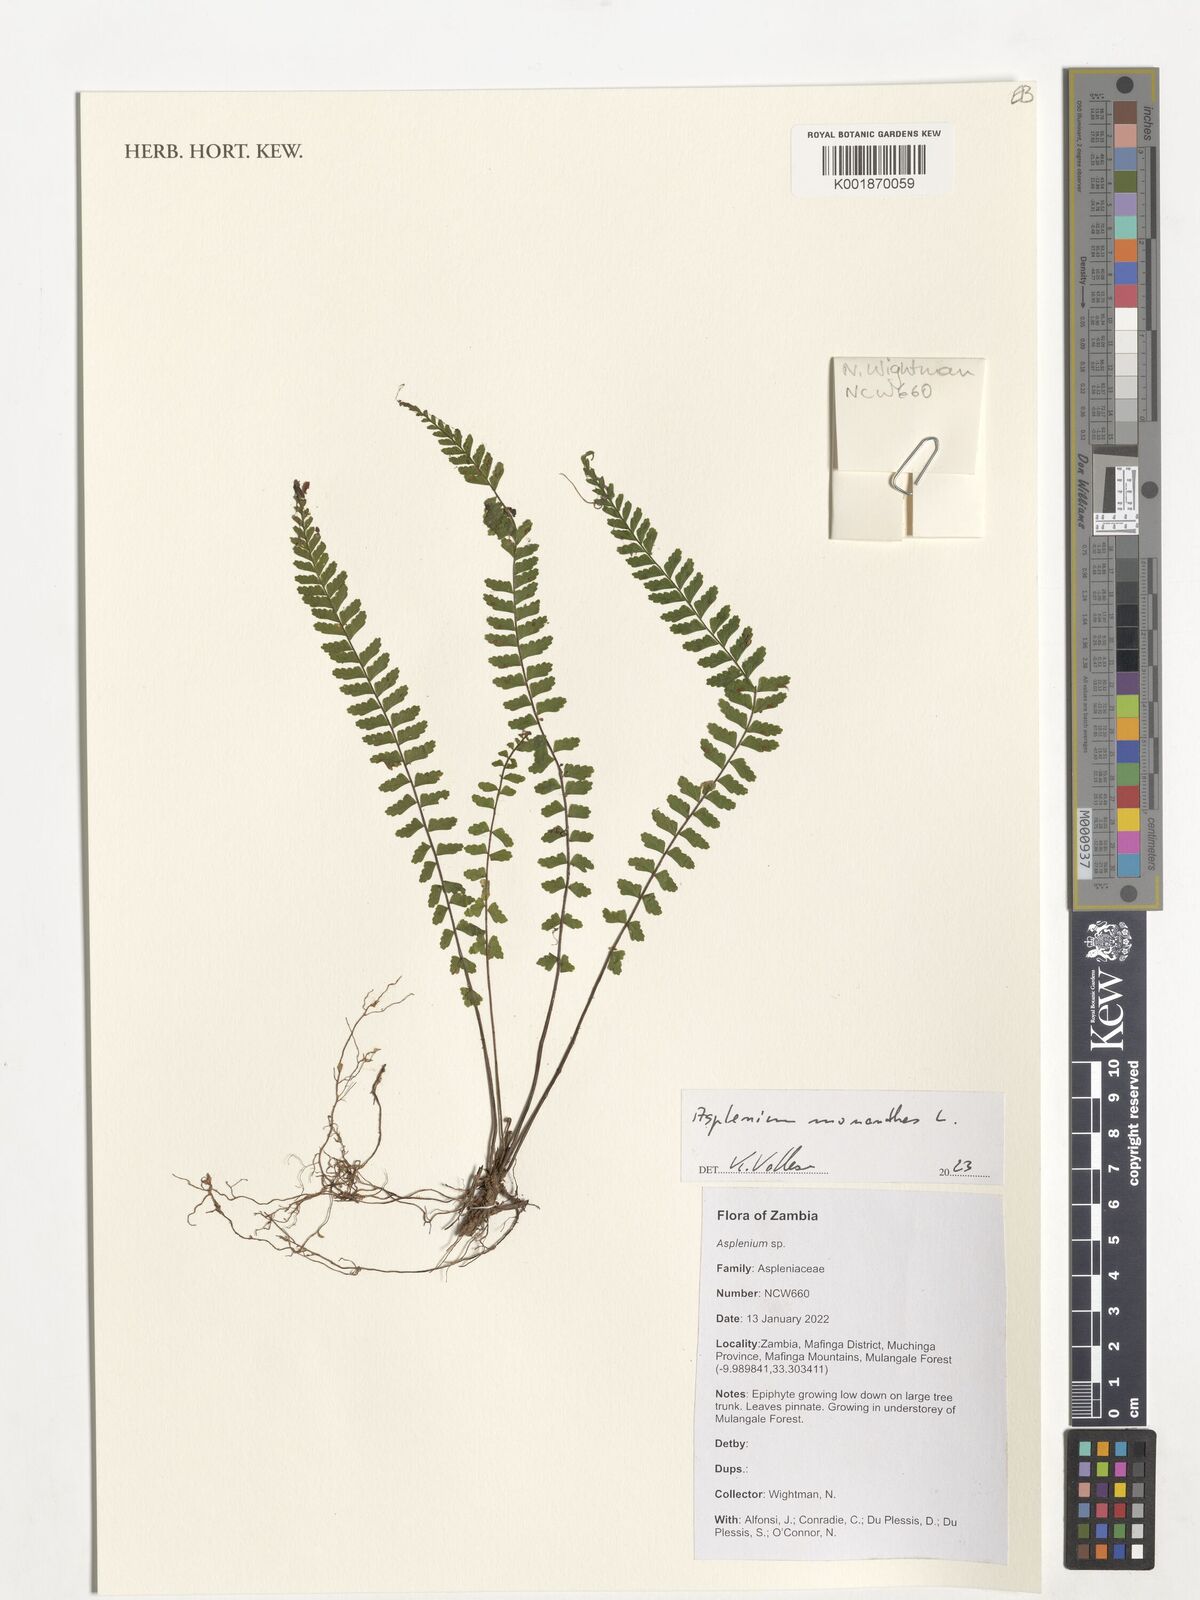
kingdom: Plantae
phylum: Tracheophyta
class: Polypodiopsida
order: Polypodiales
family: Aspleniaceae
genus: Asplenium
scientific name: Asplenium monanthes
